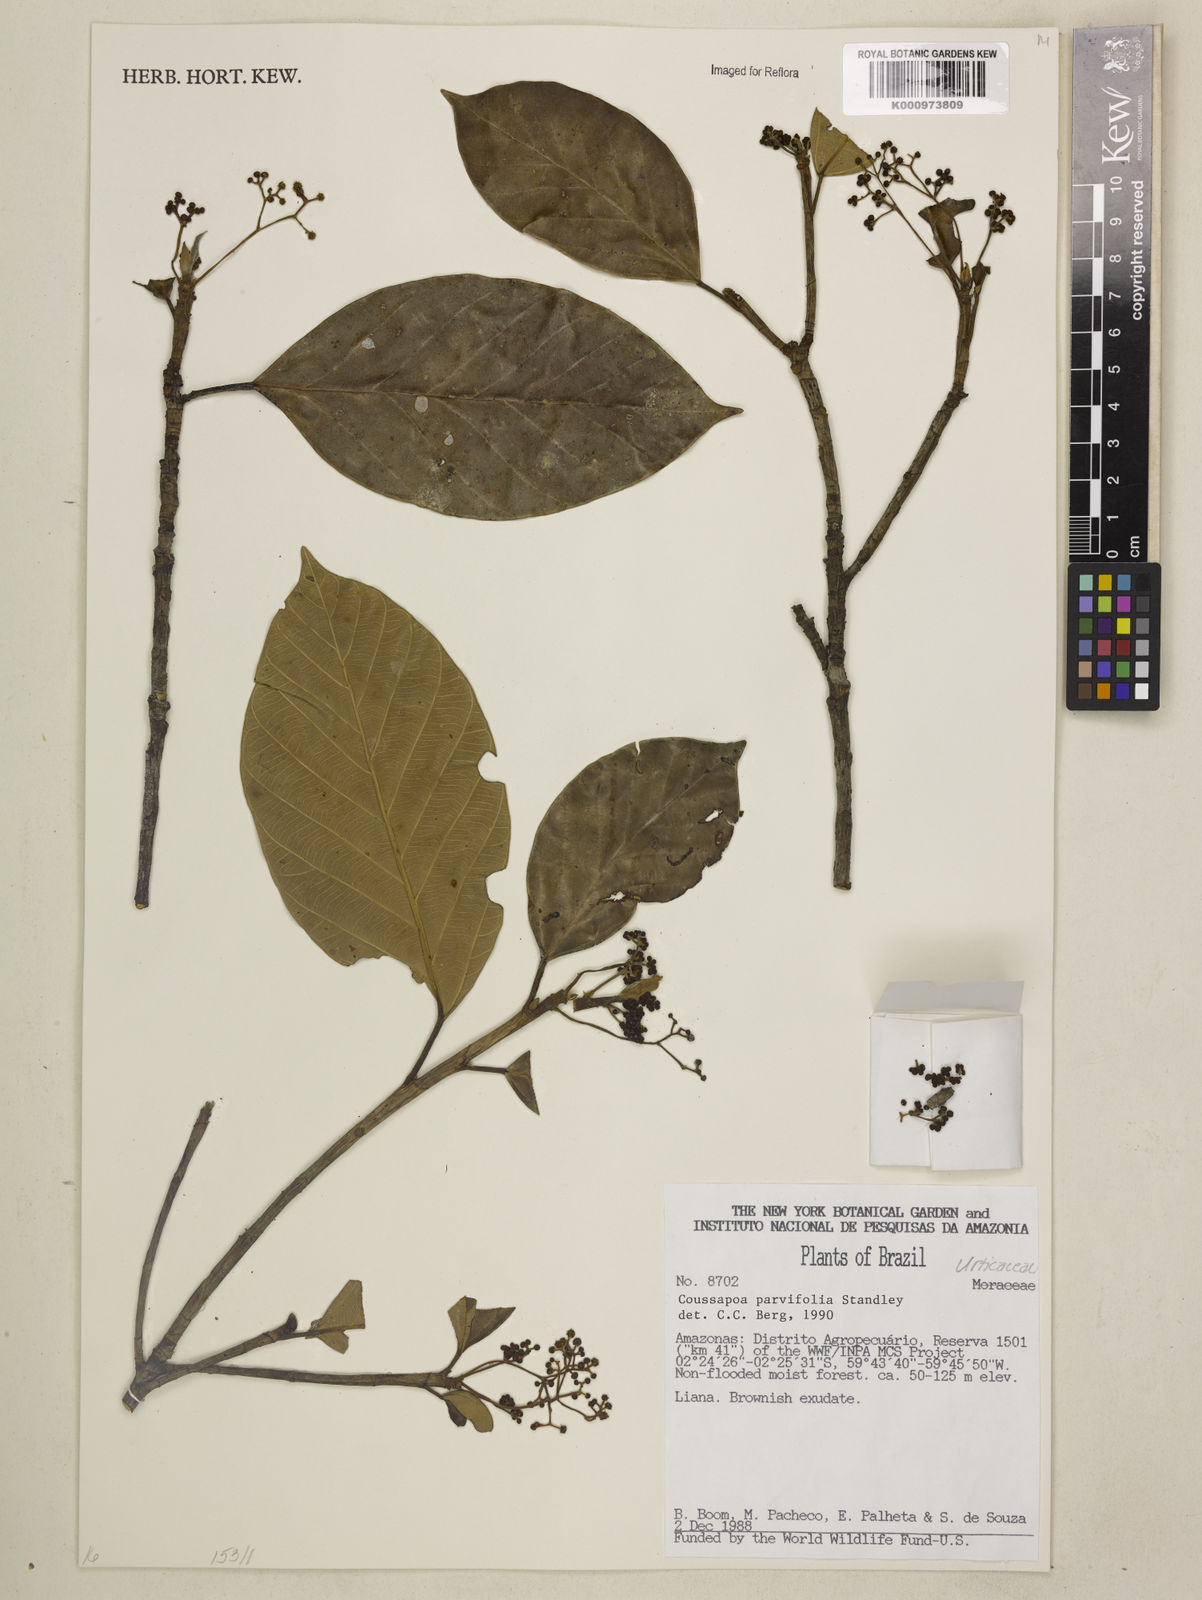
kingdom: Plantae
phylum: Tracheophyta
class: Magnoliopsida
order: Rosales
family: Urticaceae
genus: Coussapoa
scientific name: Coussapoa parvifolia
